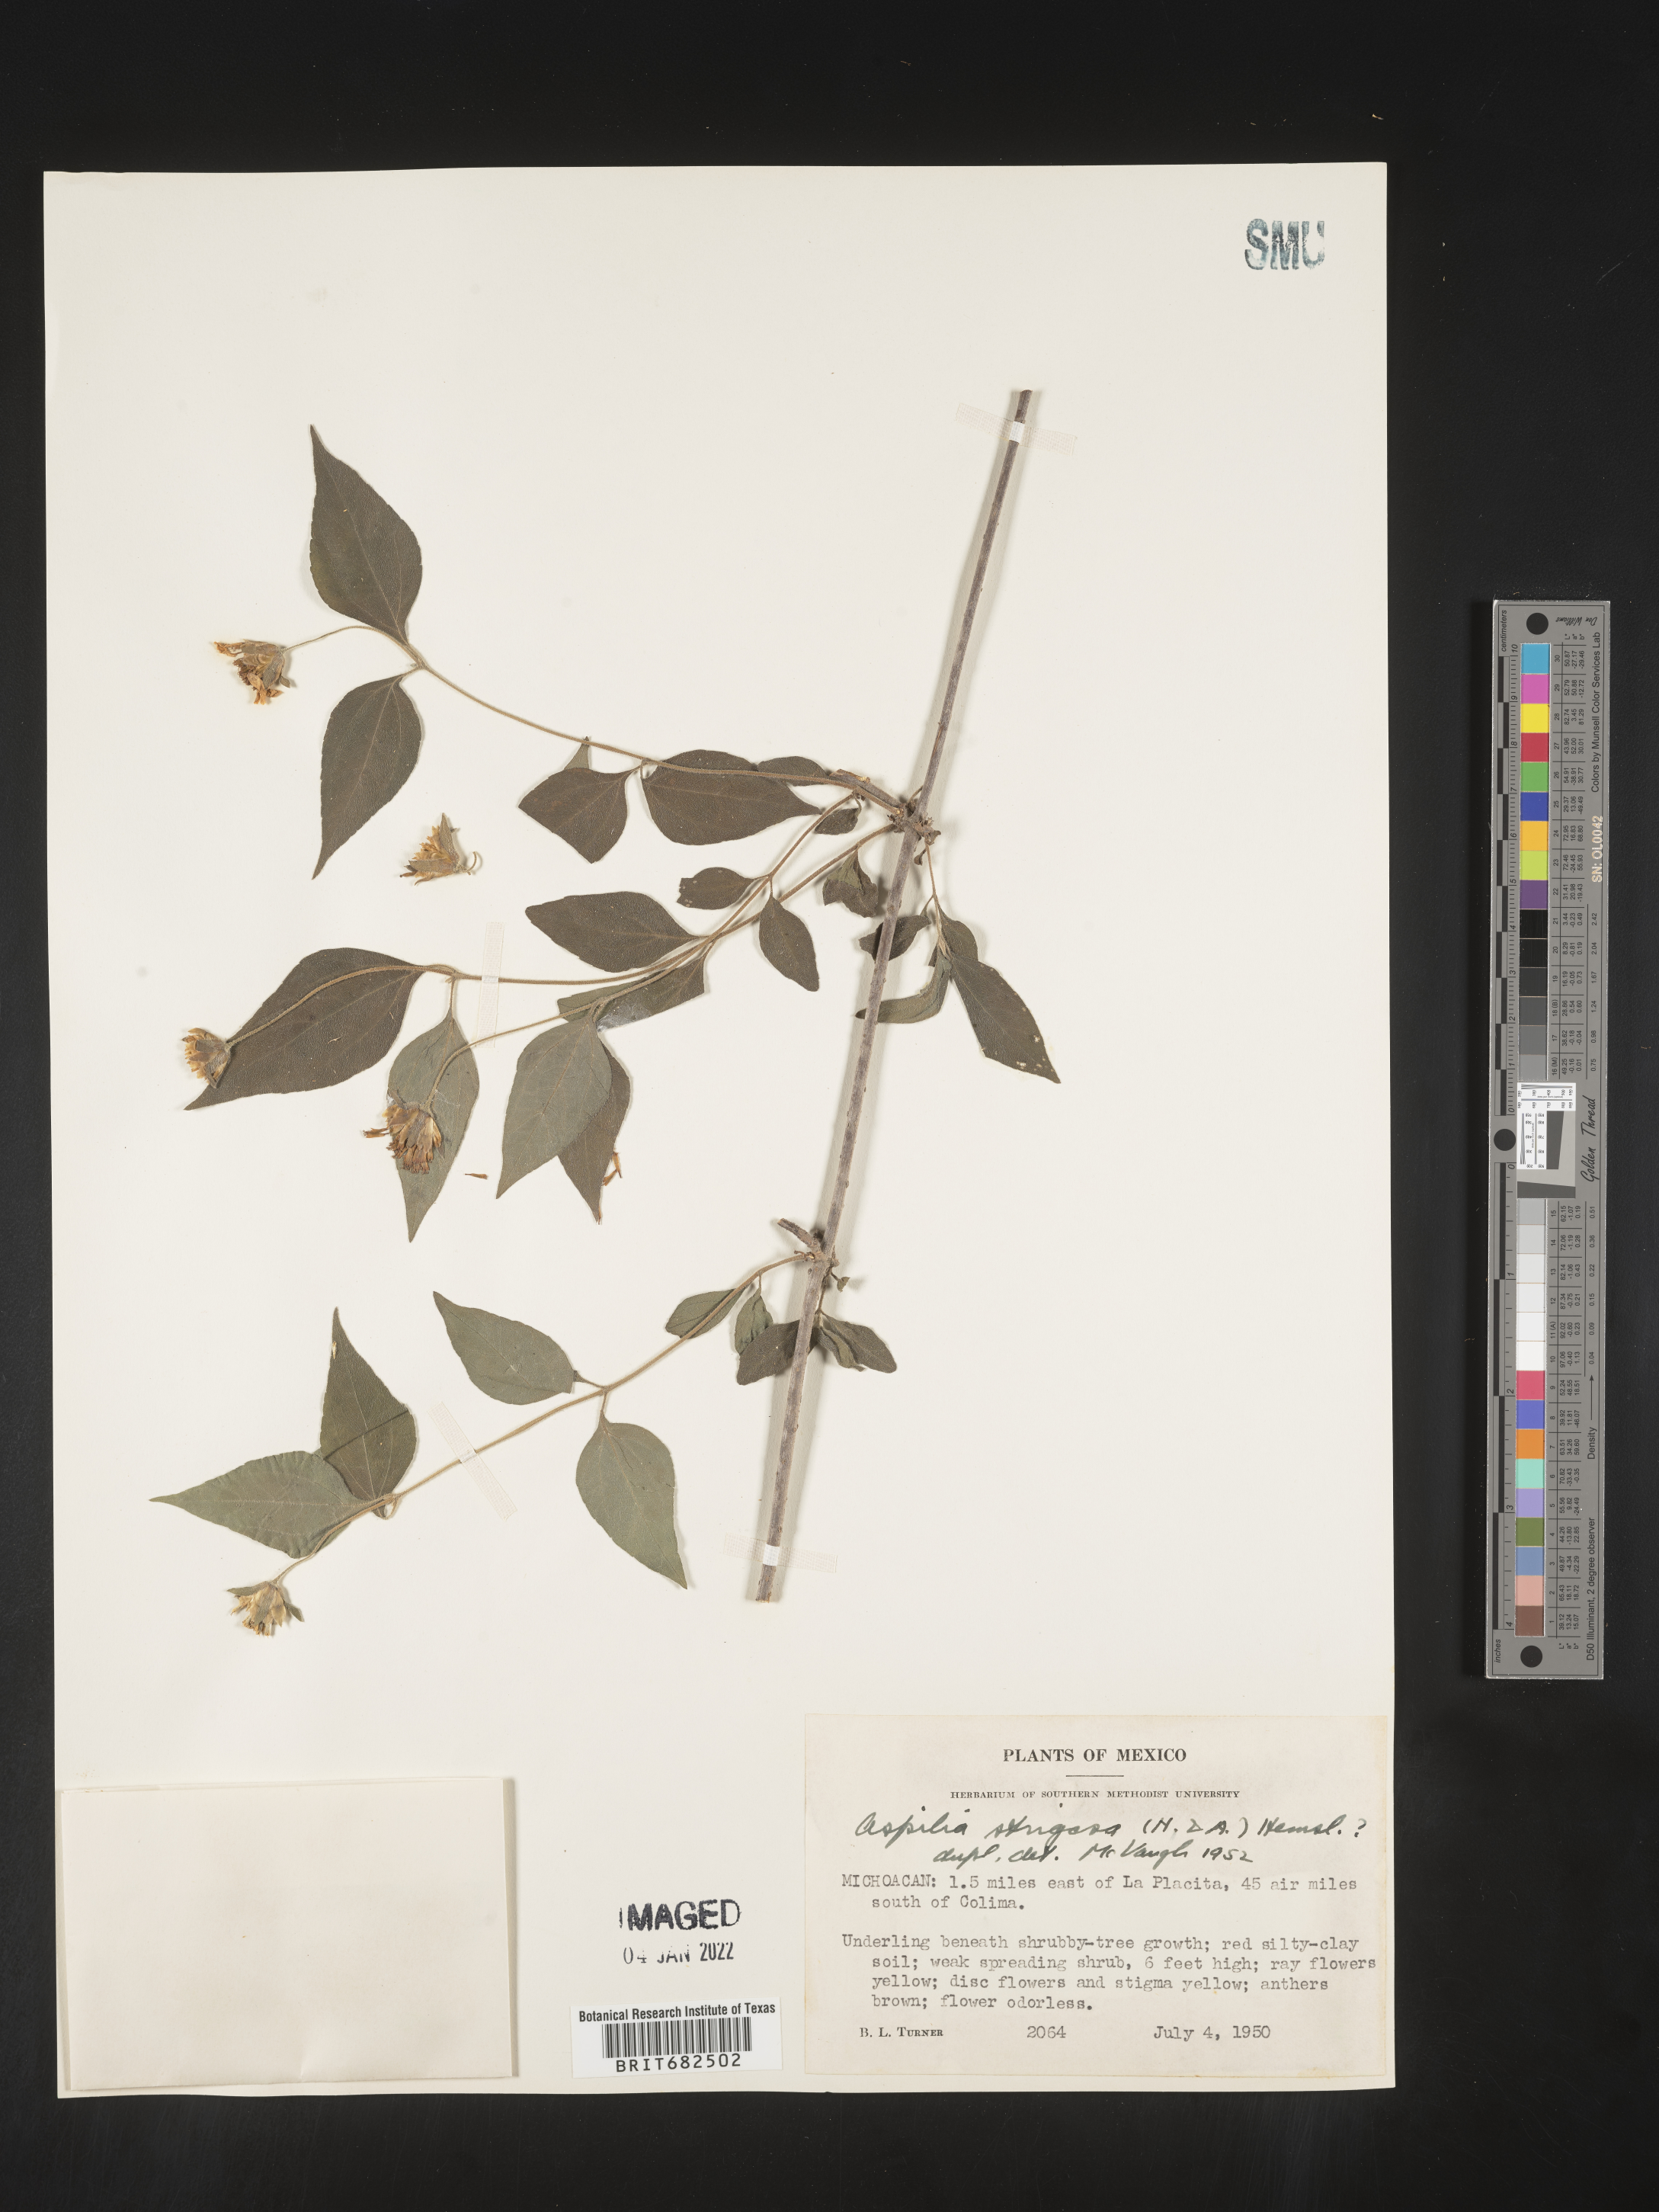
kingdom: Plantae
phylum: Tracheophyta
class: Magnoliopsida
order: Asterales
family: Asteraceae
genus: Aspilia
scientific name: Aspilia
